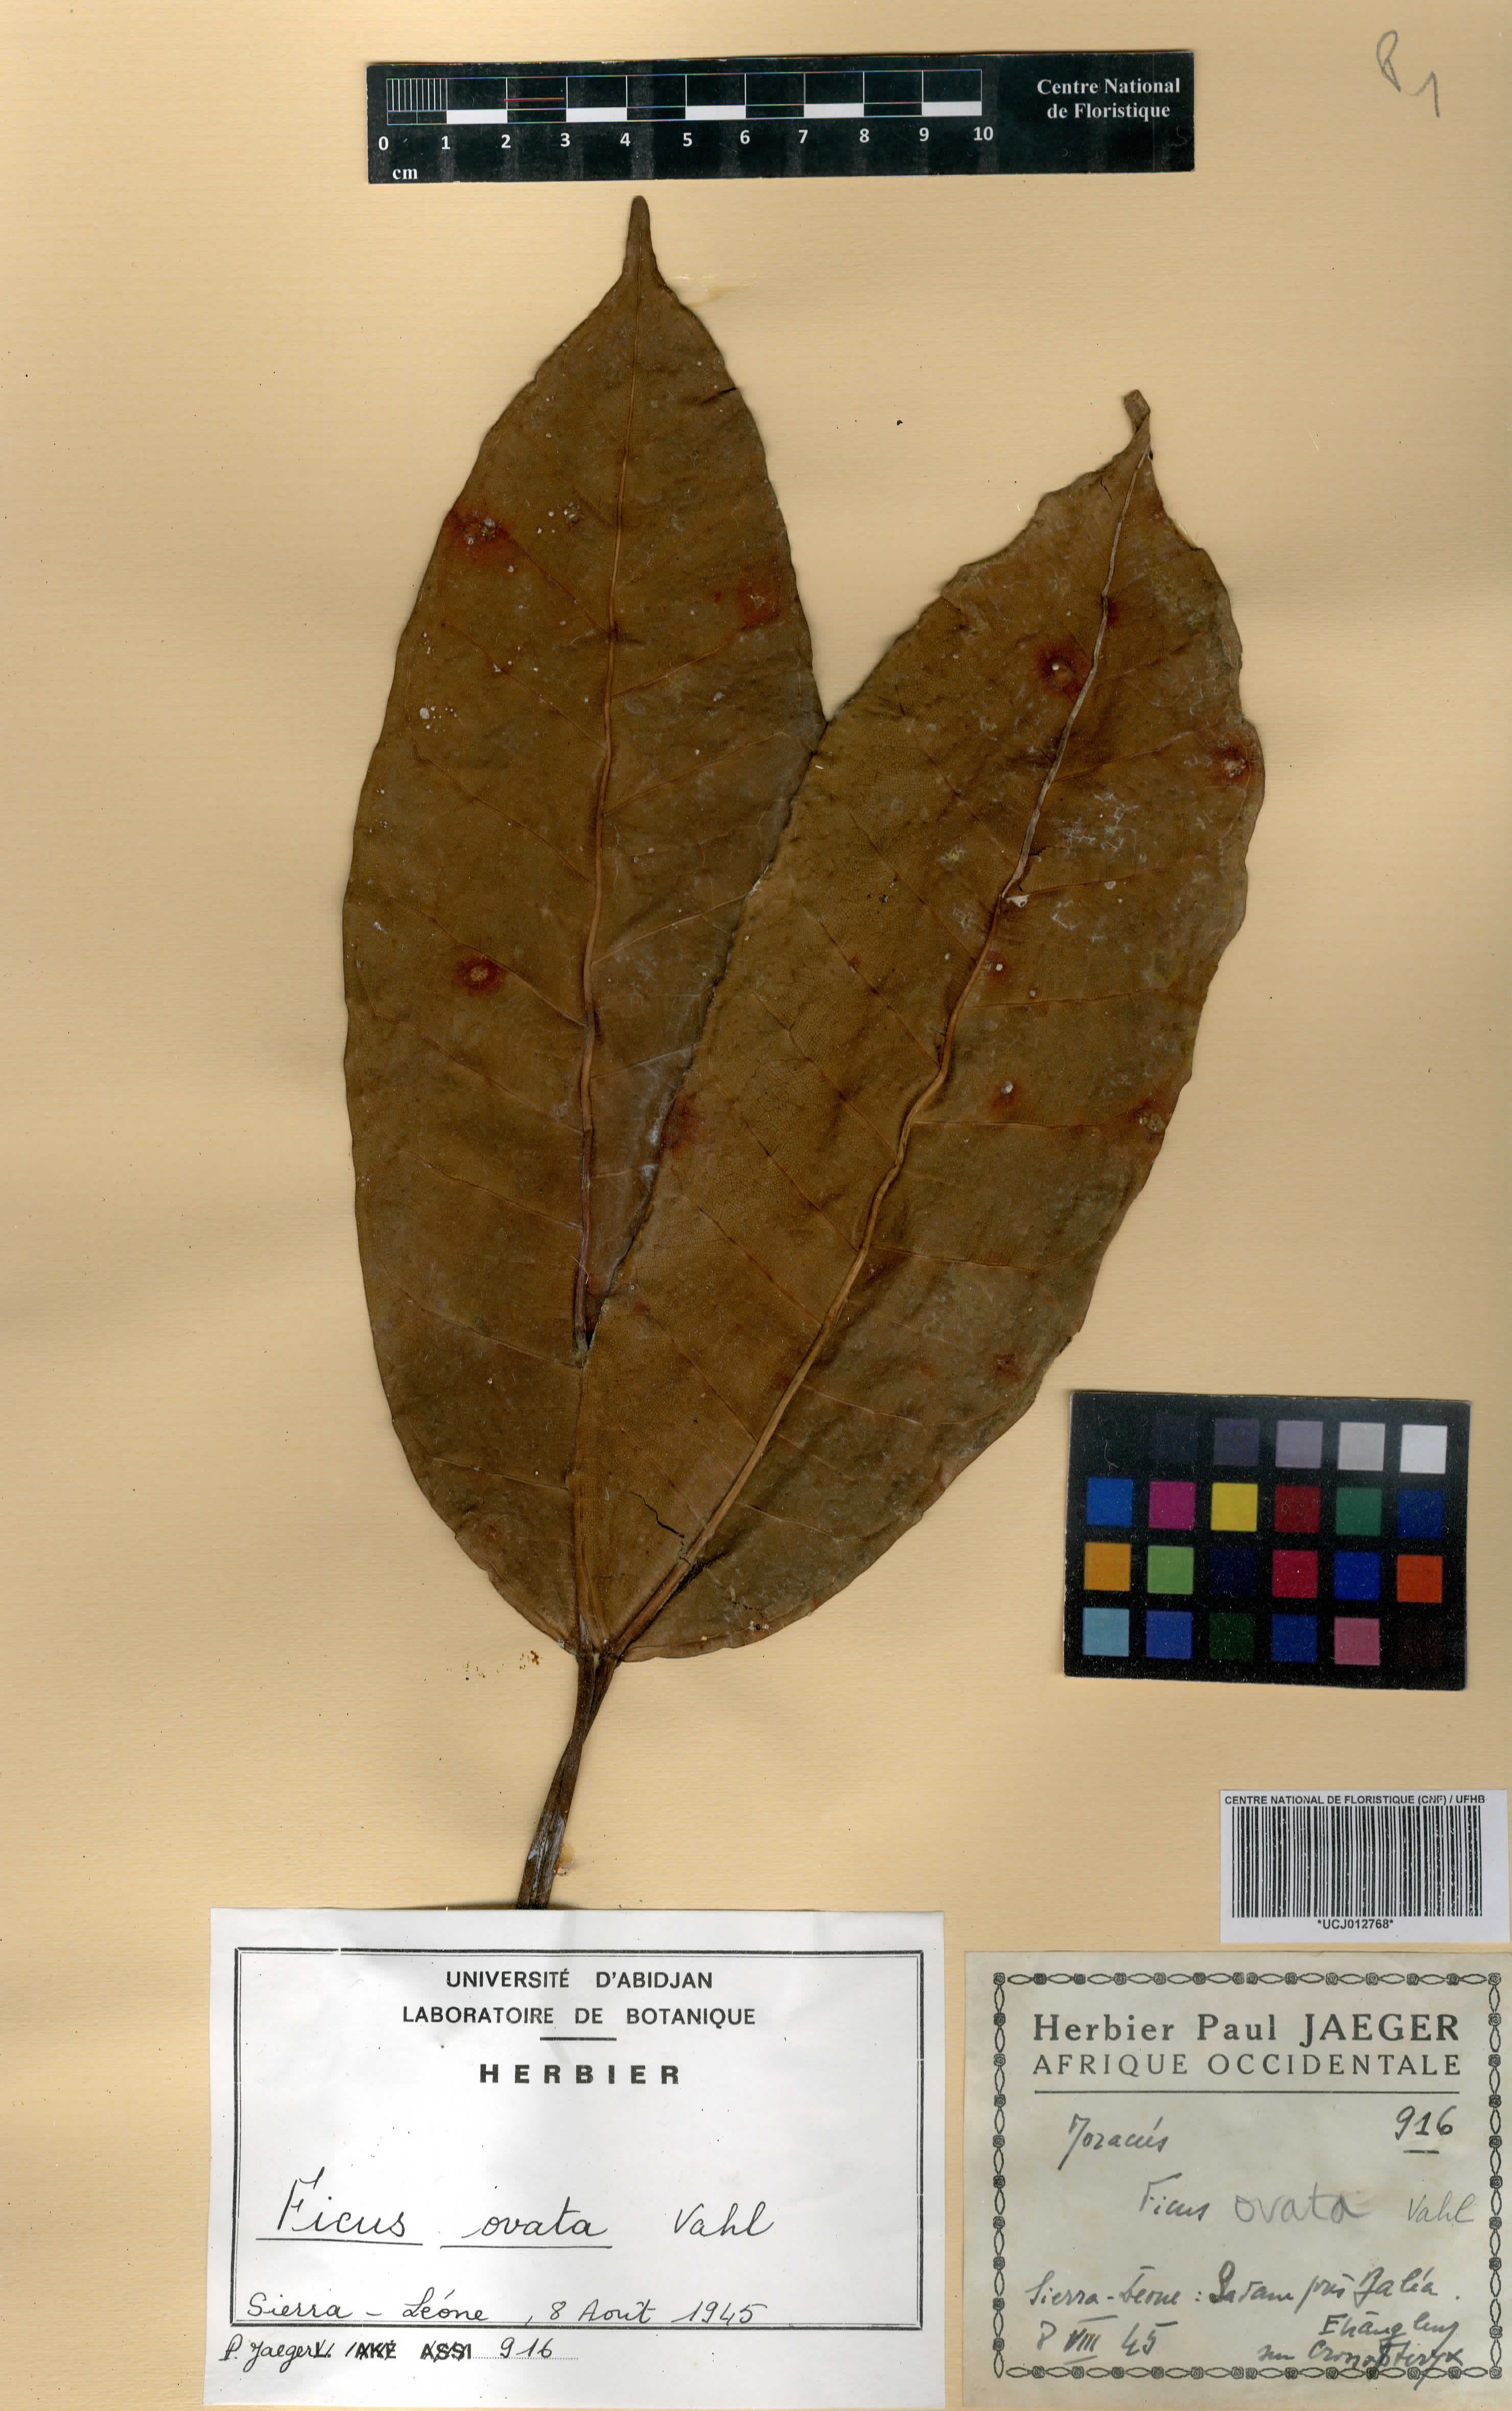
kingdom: Plantae
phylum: Tracheophyta
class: Magnoliopsida
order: Rosales
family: Moraceae
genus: Ficus
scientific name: Ficus laurifolia
